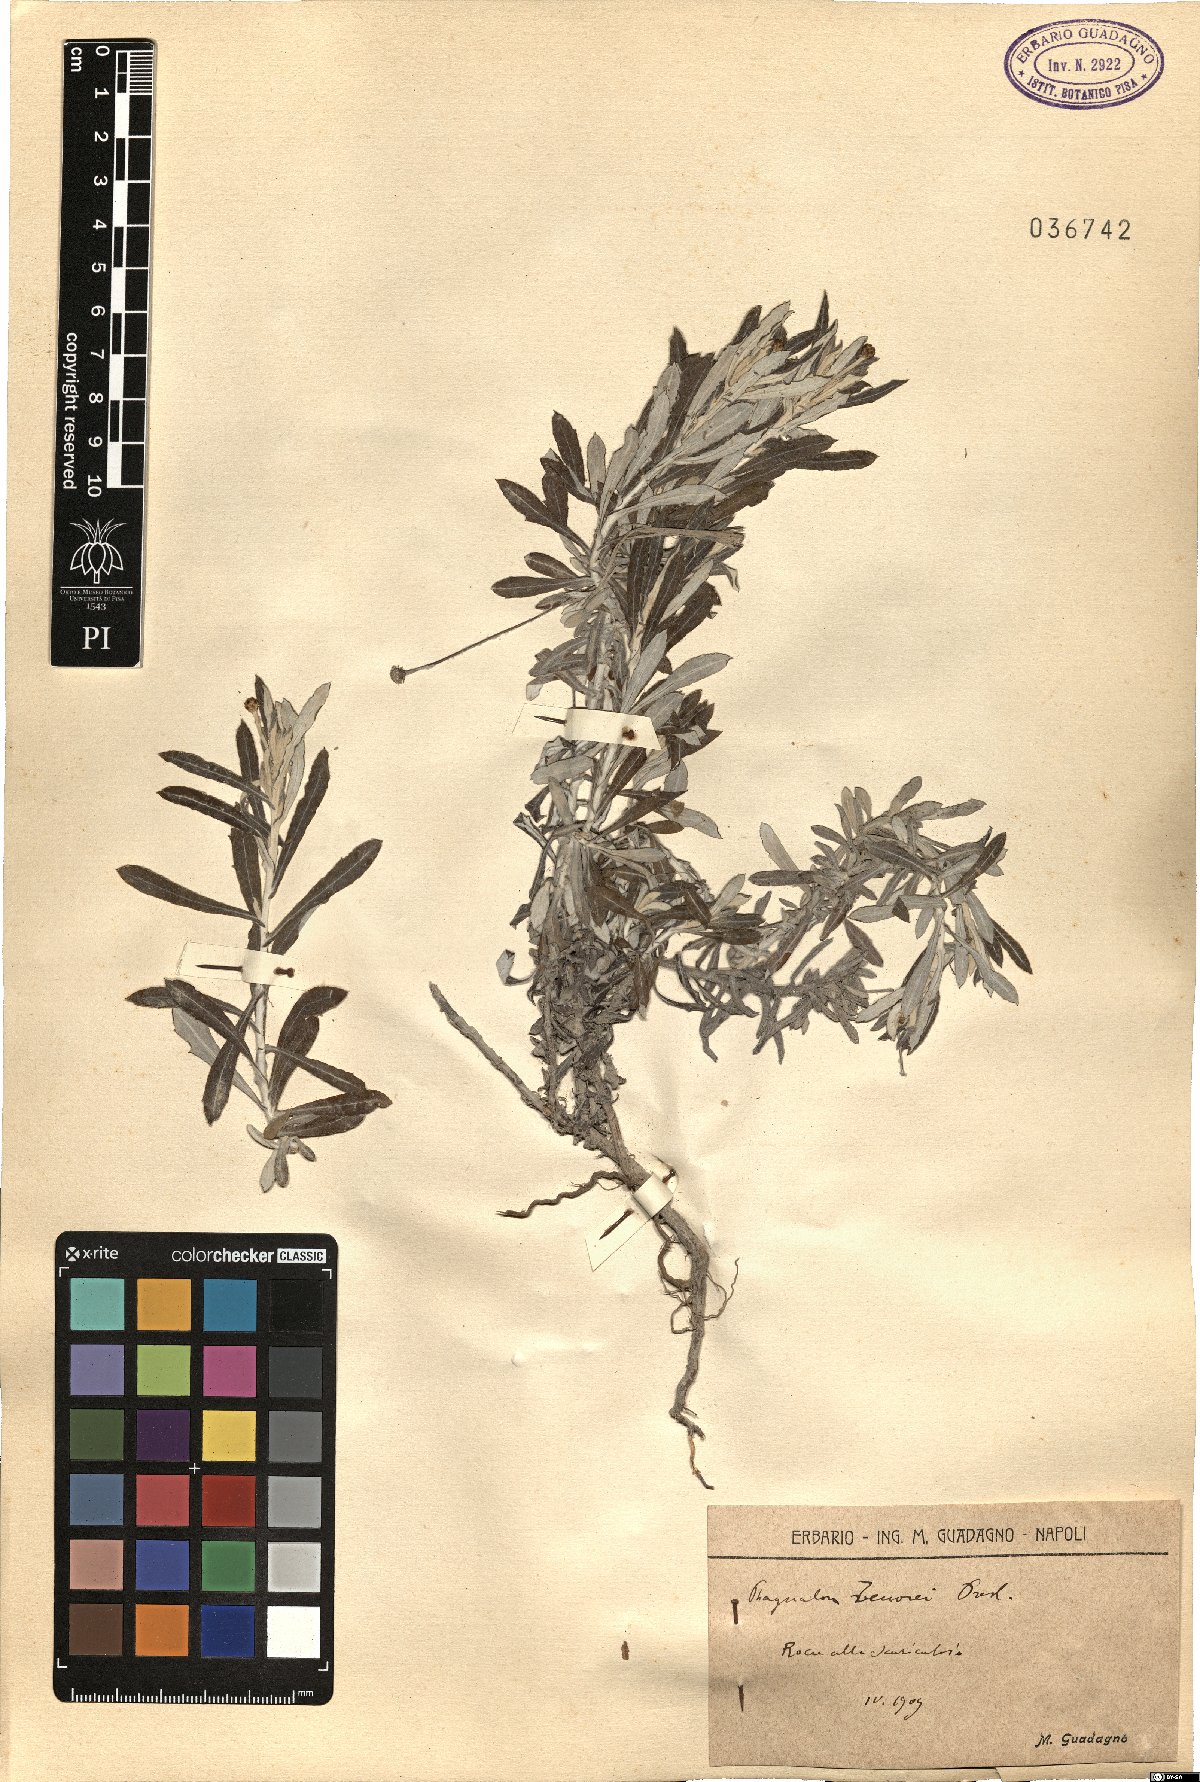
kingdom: Plantae
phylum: Tracheophyta
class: Magnoliopsida
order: Asterales
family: Asteraceae
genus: Phagnalon
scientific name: Phagnalon graecum
